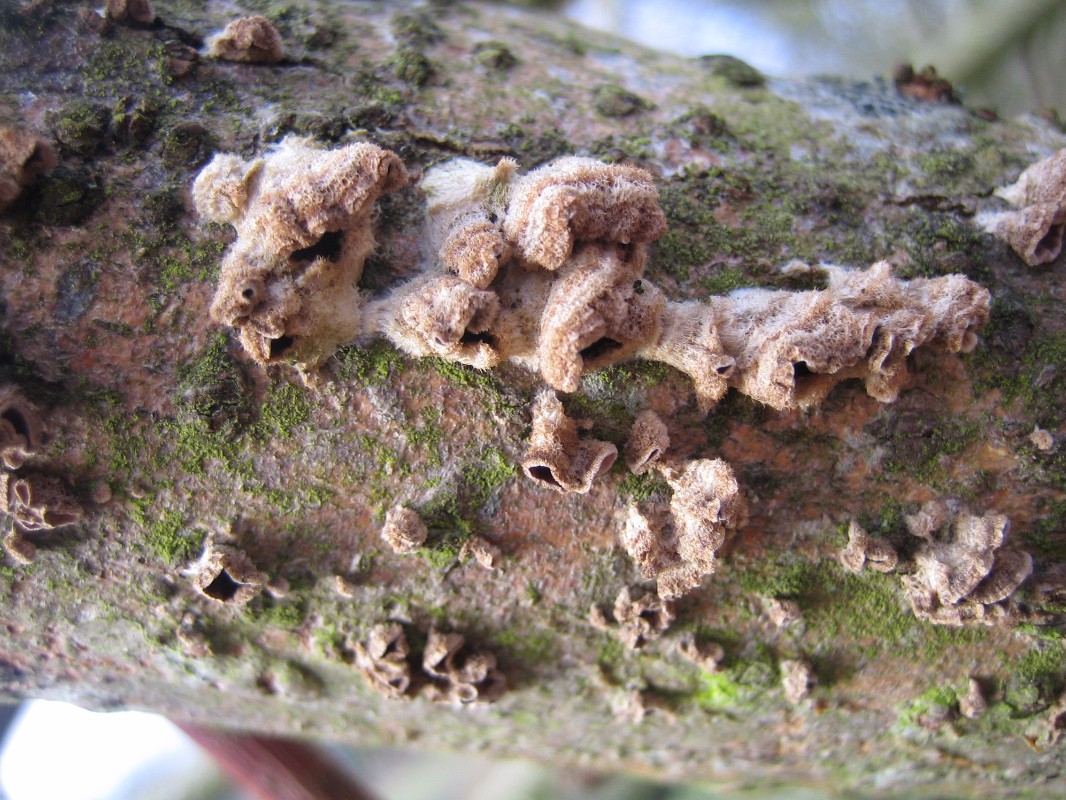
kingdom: Fungi
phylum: Basidiomycota
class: Agaricomycetes
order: Agaricales
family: Cyphellaceae
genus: Chondrostereum
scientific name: Chondrostereum purpureum
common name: purpurlædersvamp
